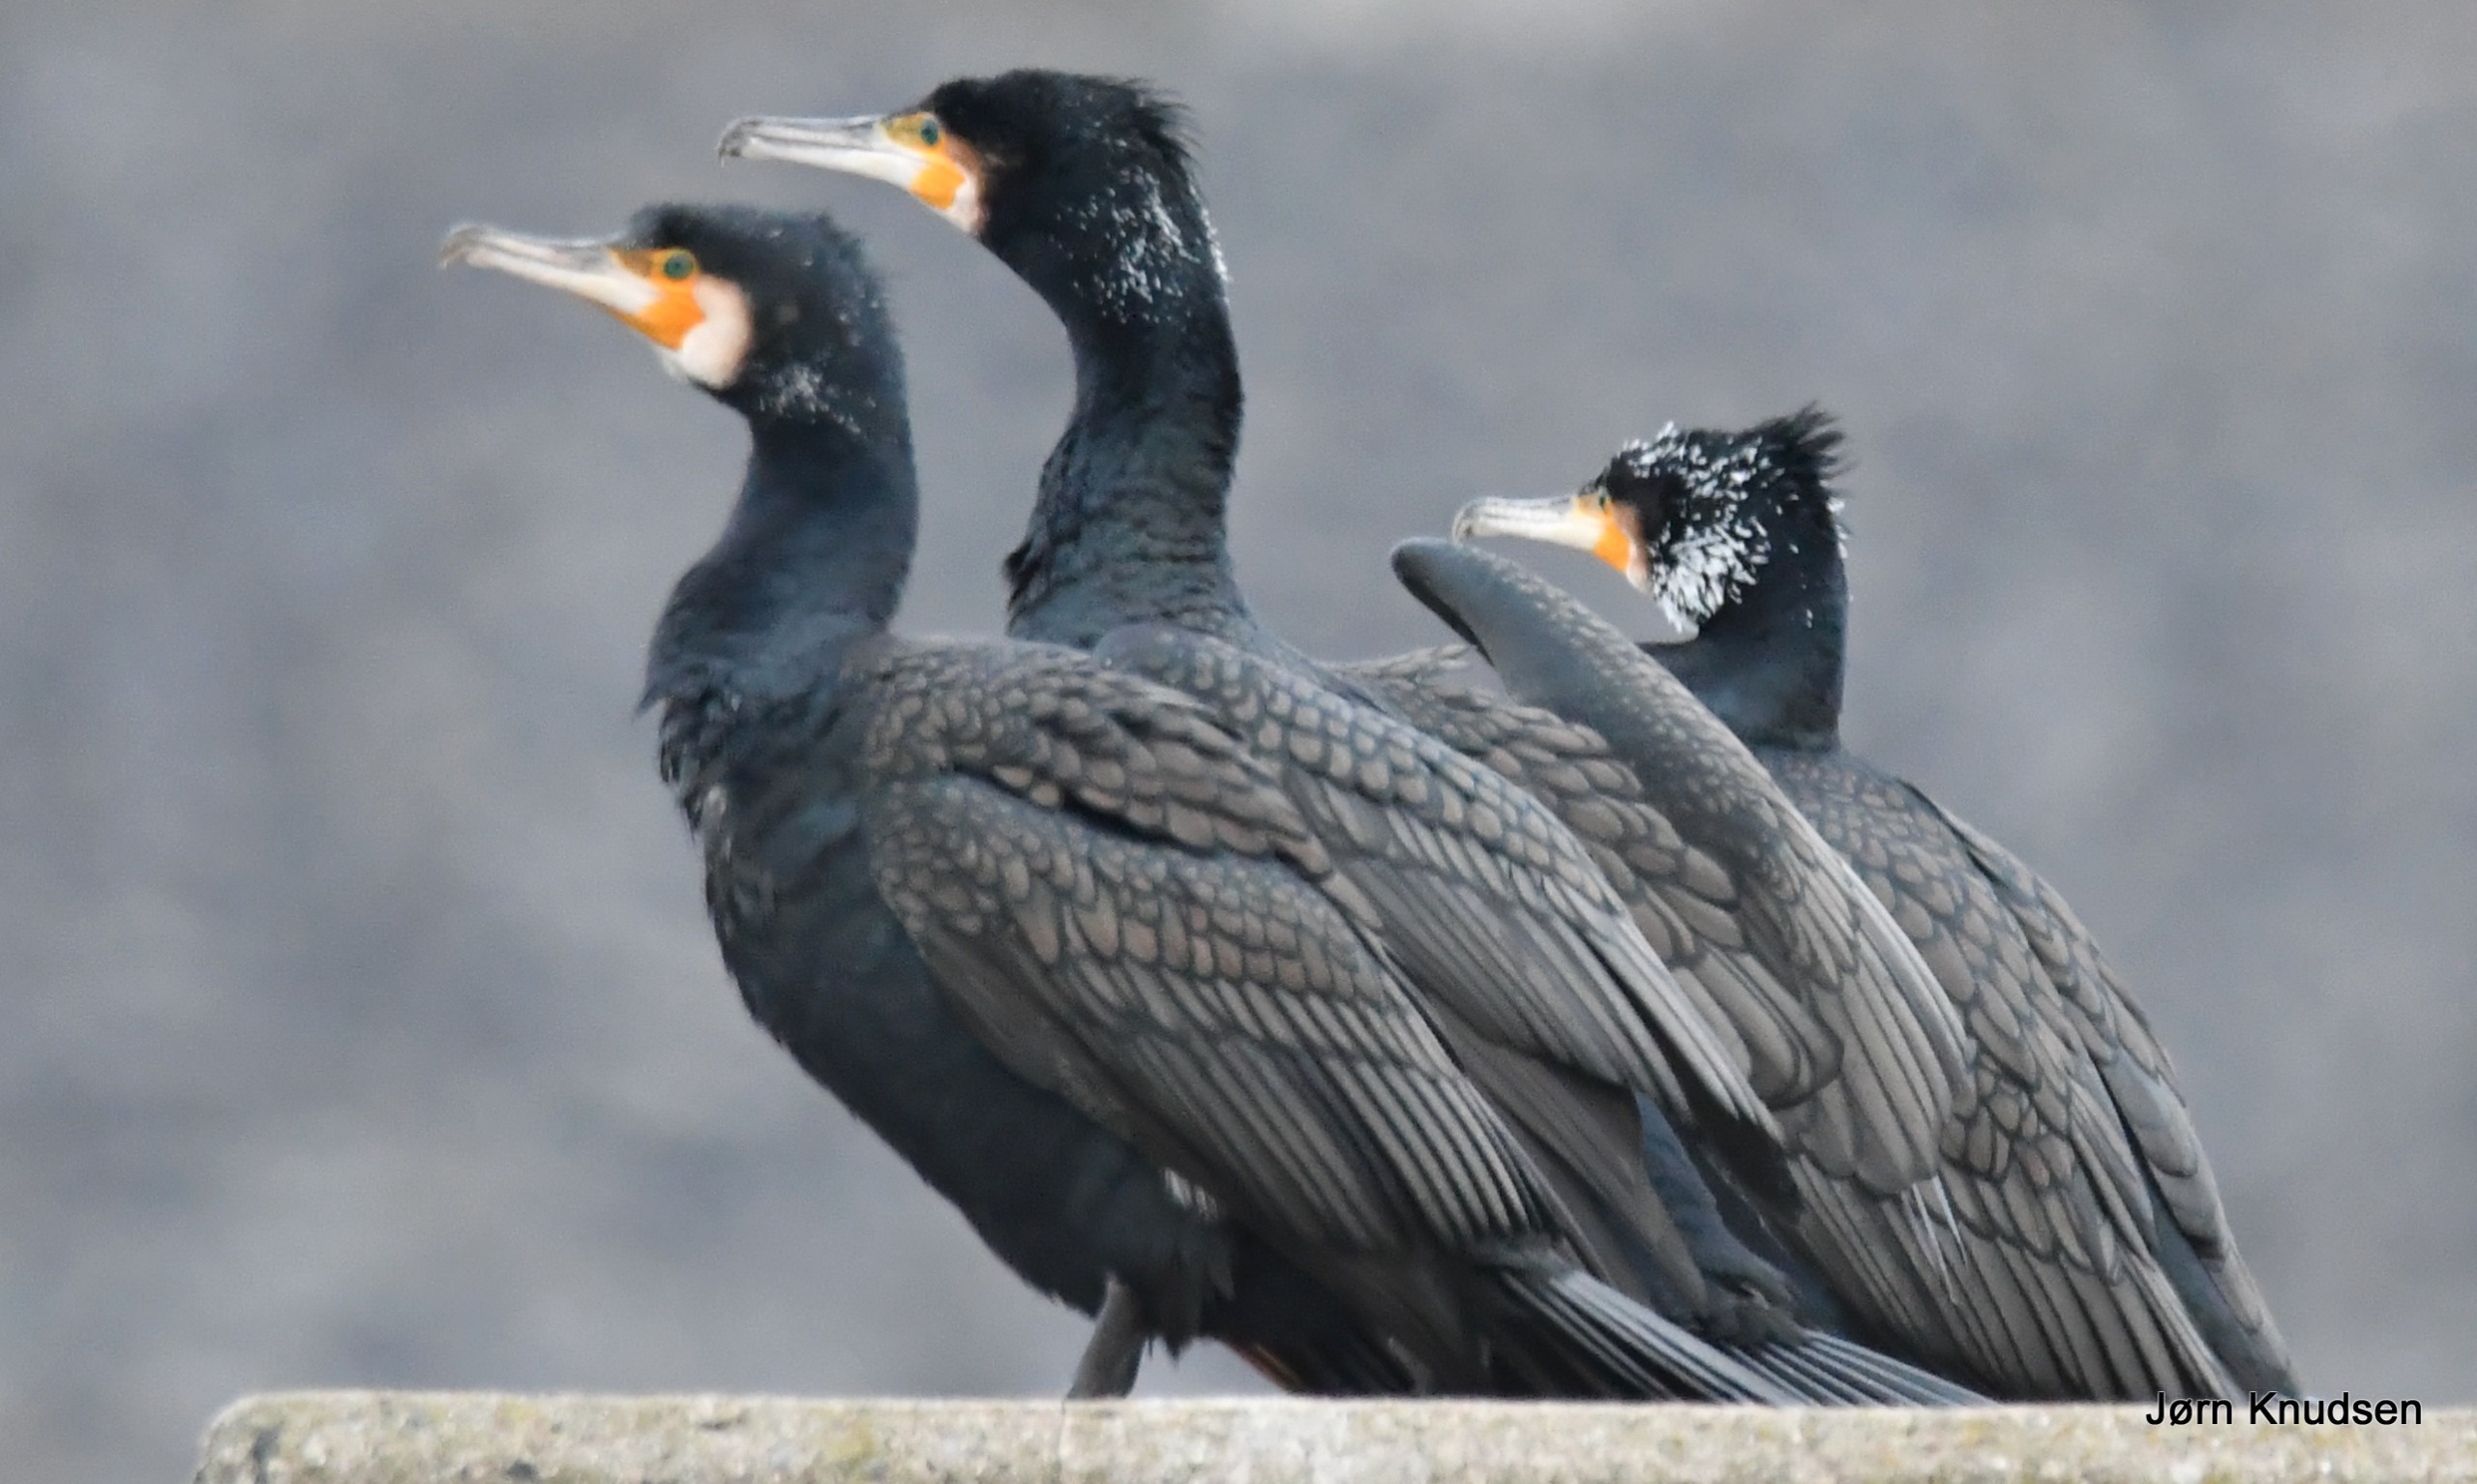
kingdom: Animalia
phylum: Chordata
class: Aves
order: Suliformes
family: Phalacrocoracidae
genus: Phalacrocorax
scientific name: Phalacrocorax carbo
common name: Mellemskarv
